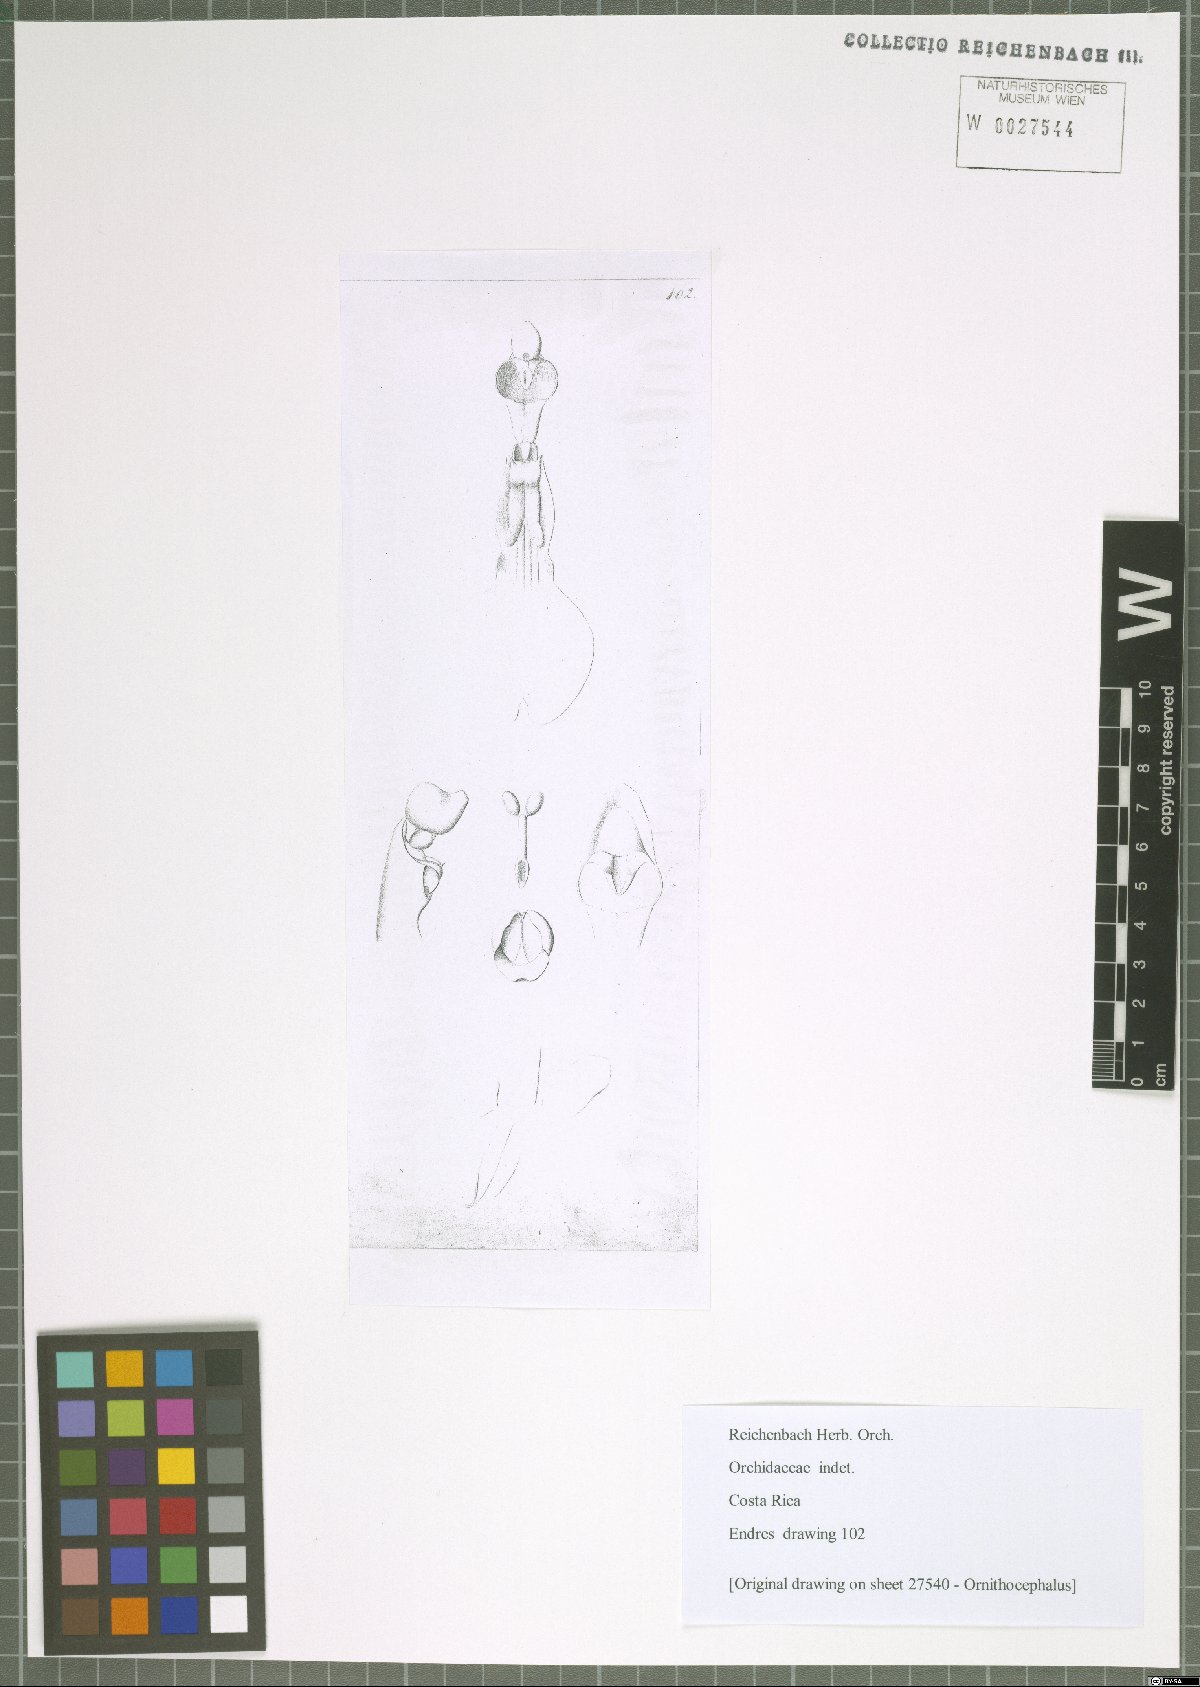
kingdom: Plantae
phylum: Tracheophyta
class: Liliopsida
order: Asparagales
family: Orchidaceae
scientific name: Orchidaceae
